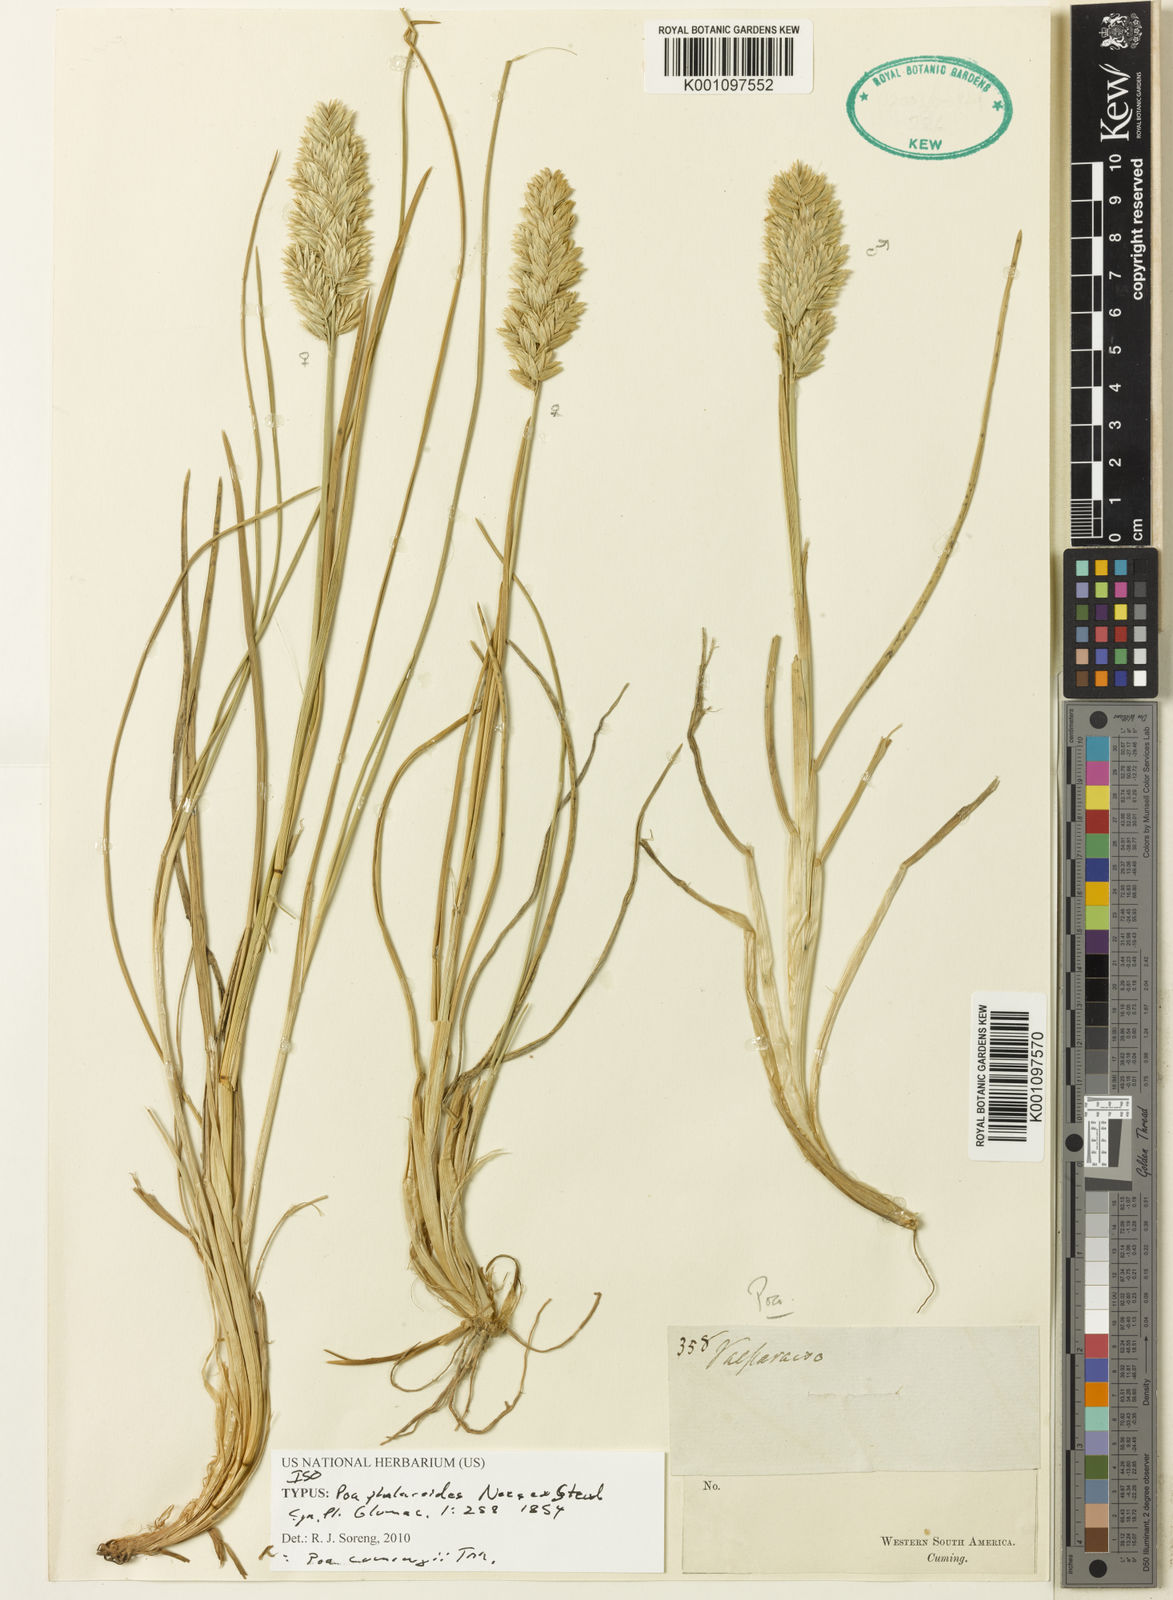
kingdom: Plantae
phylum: Tracheophyta
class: Liliopsida
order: Poales
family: Poaceae
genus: Poa
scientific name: Poa cumingii
